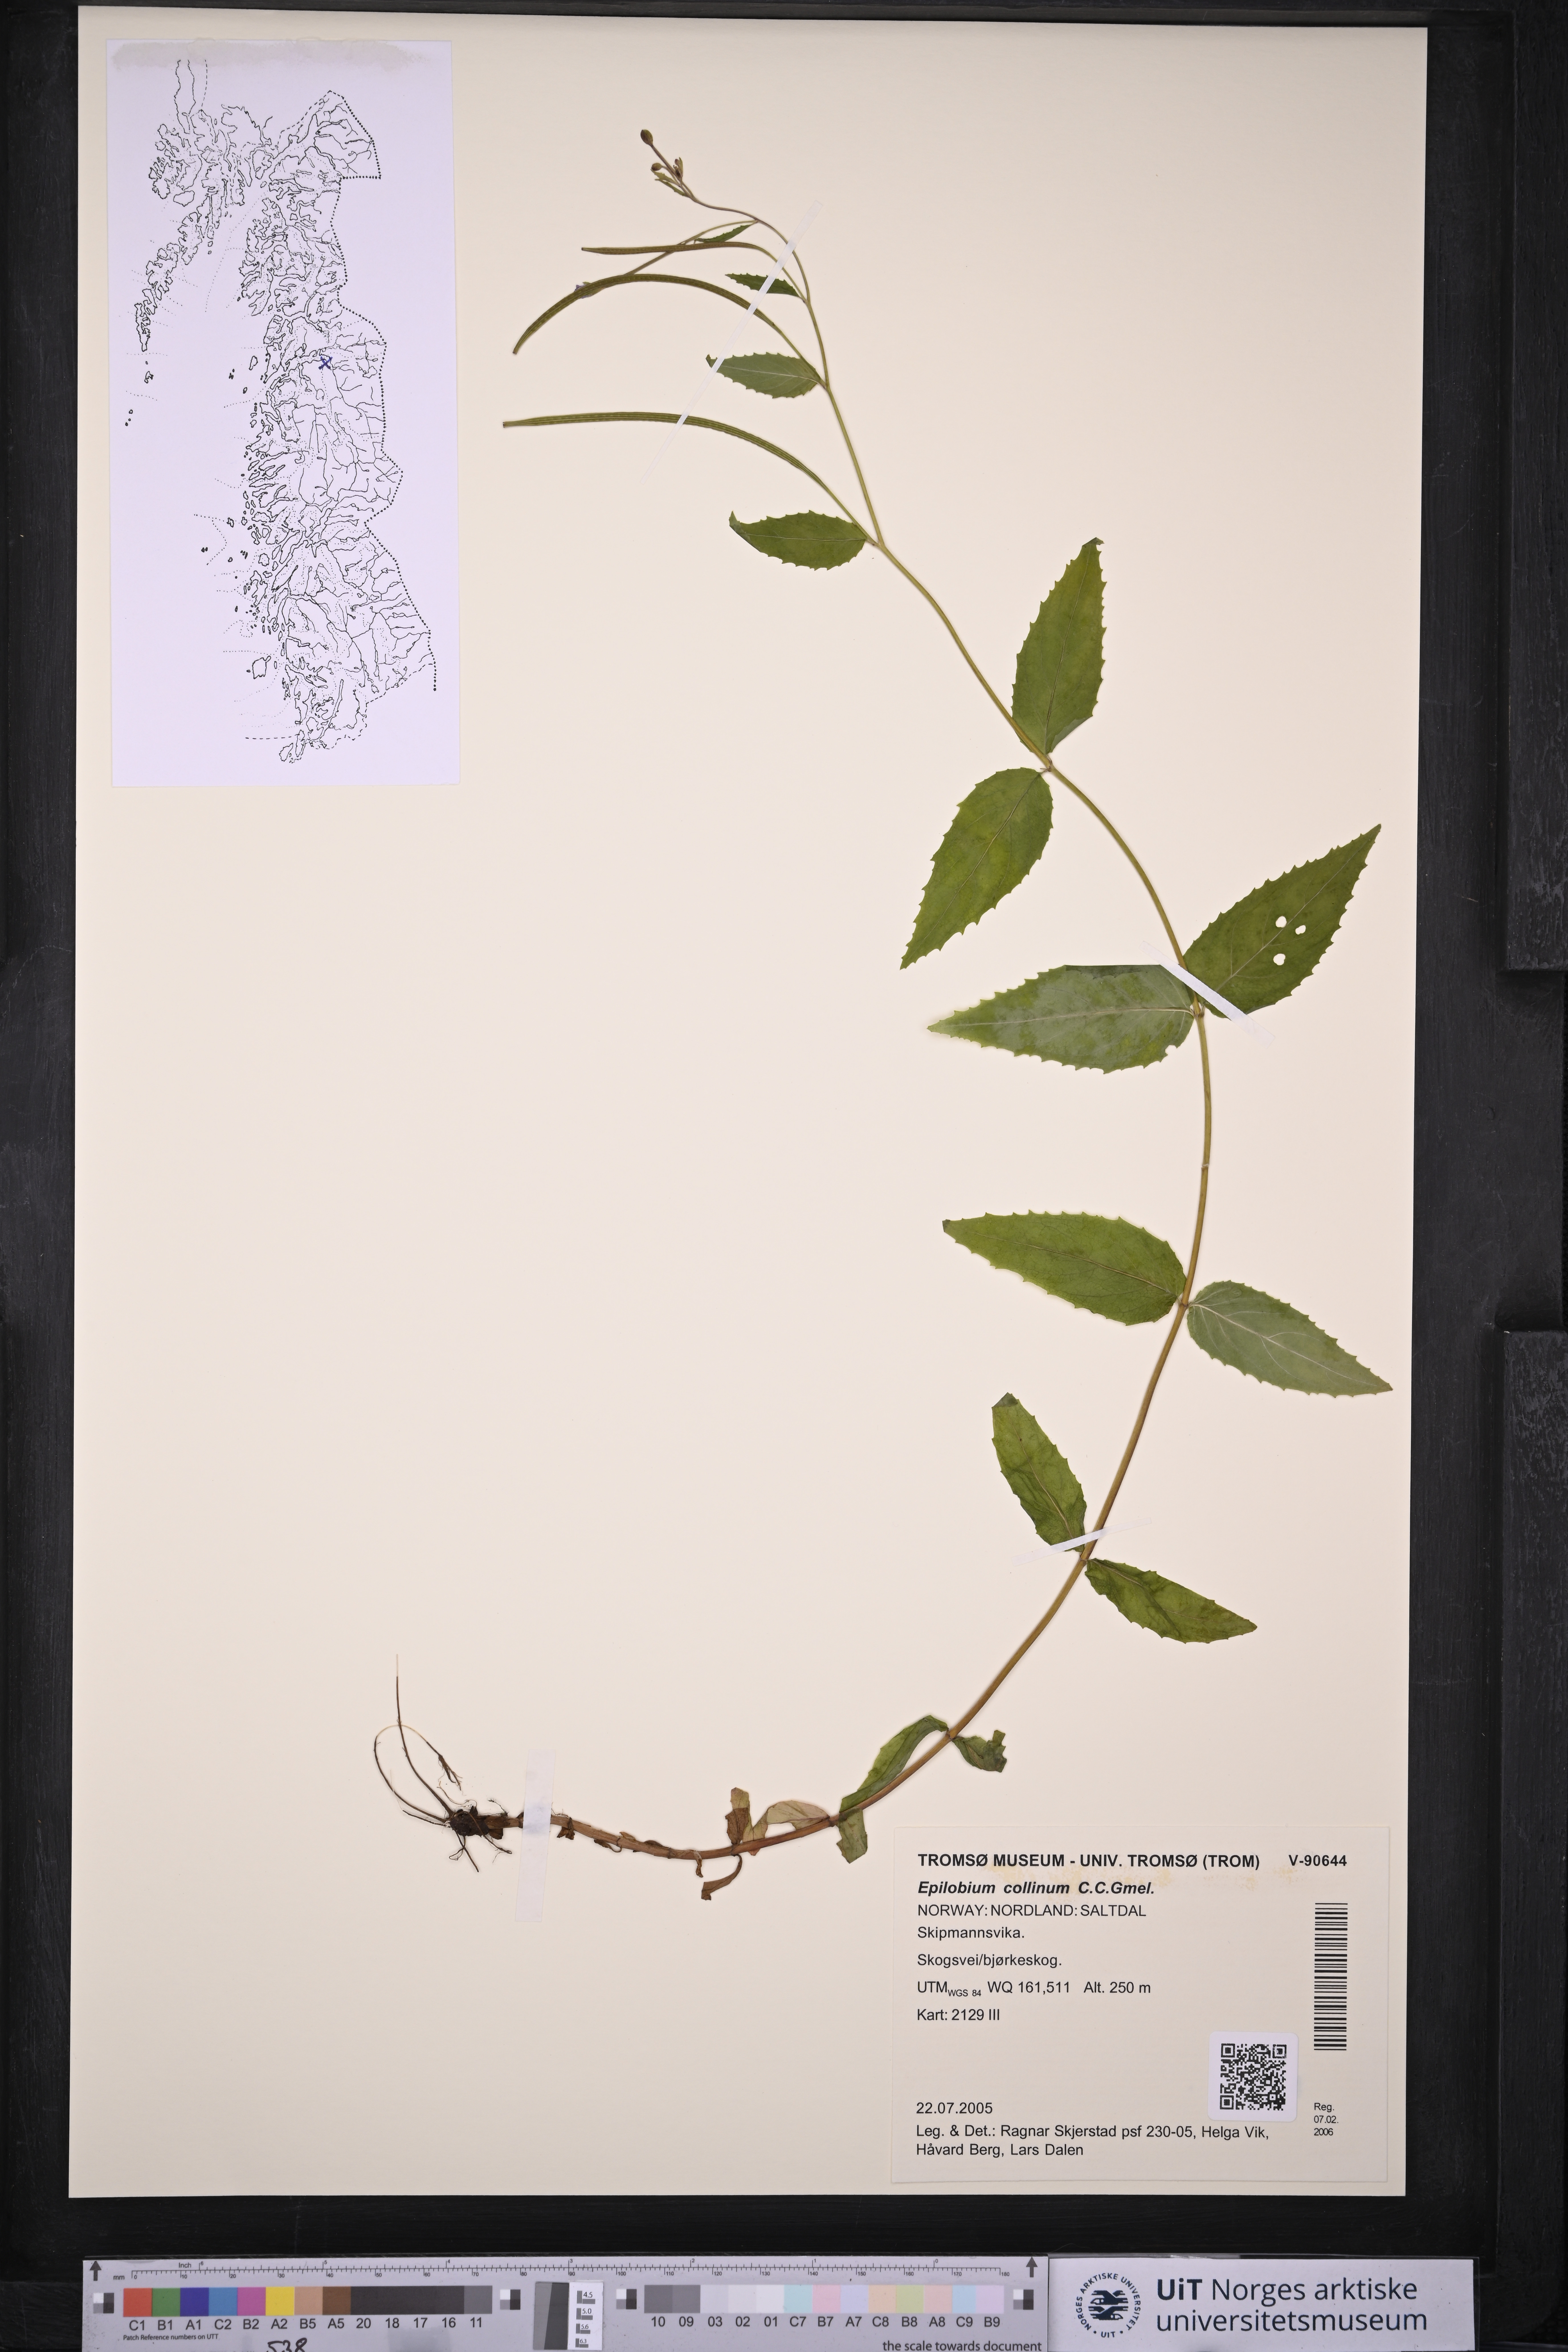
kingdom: Plantae
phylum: Tracheophyta
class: Magnoliopsida
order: Myrtales
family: Onagraceae
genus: Epilobium
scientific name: Epilobium collinum
